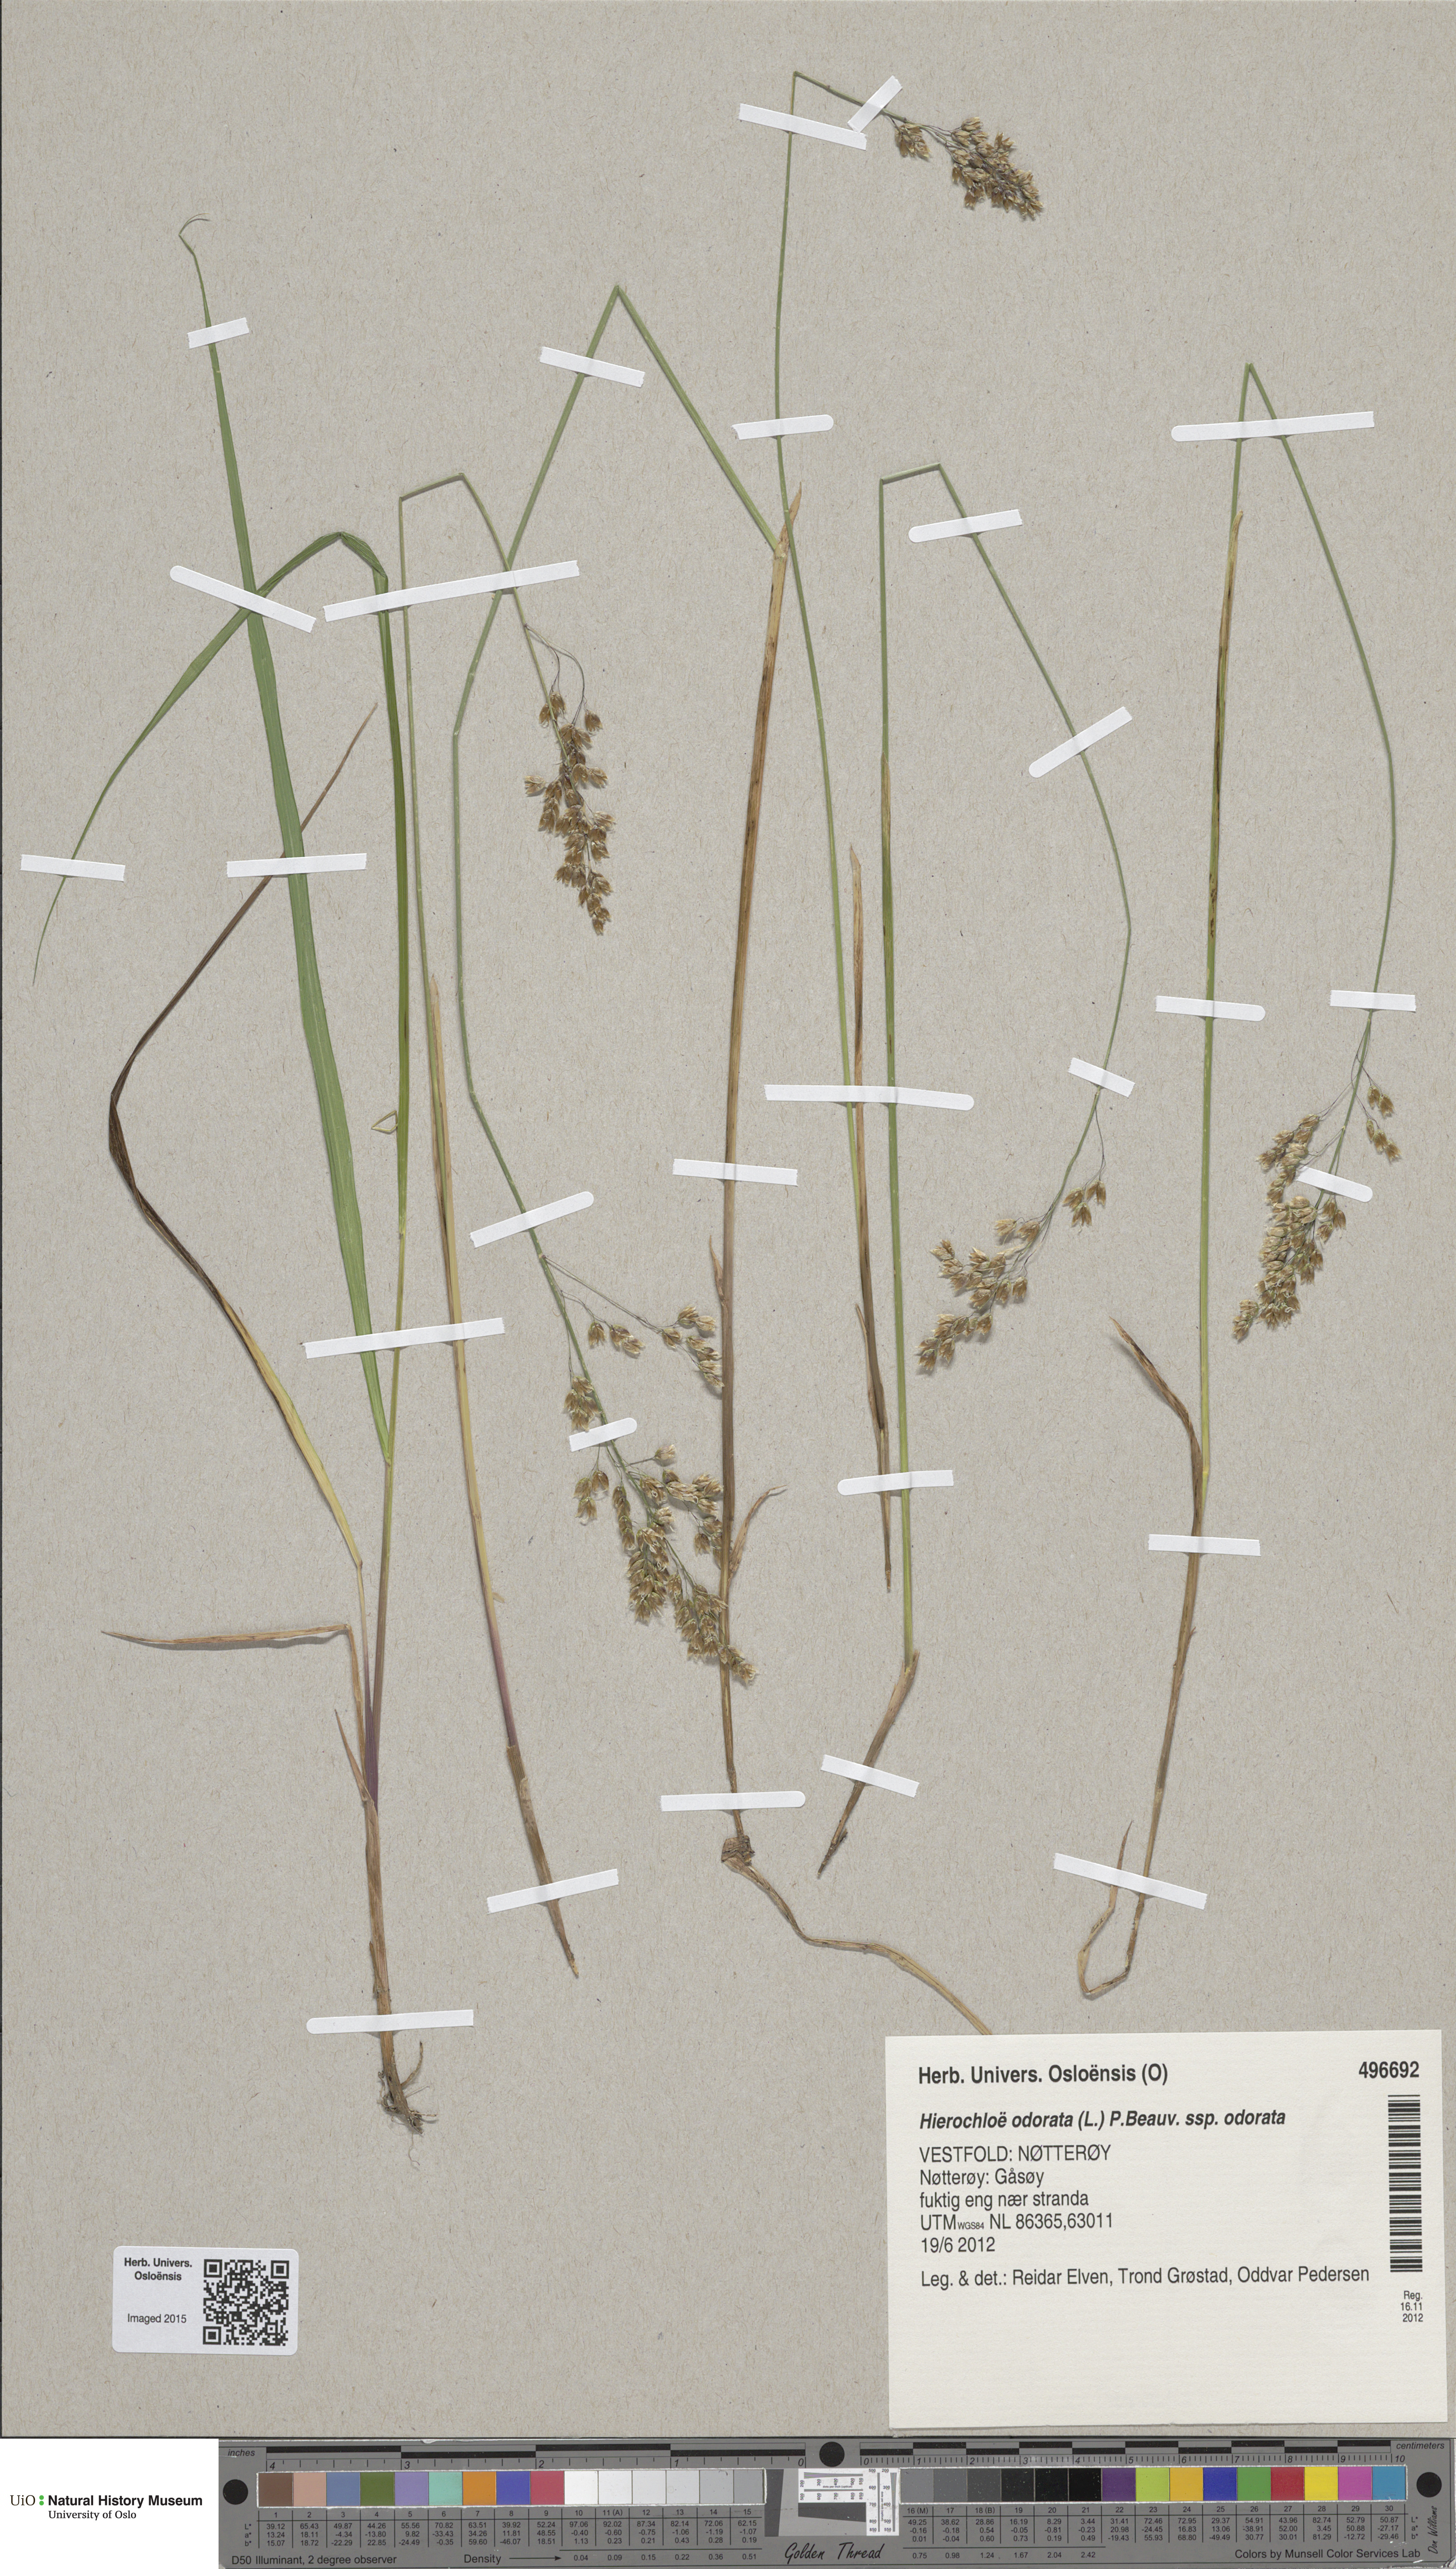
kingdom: Plantae
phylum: Tracheophyta
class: Liliopsida
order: Poales
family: Poaceae
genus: Anthoxanthum
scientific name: Anthoxanthum nitens
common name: Holy grass
